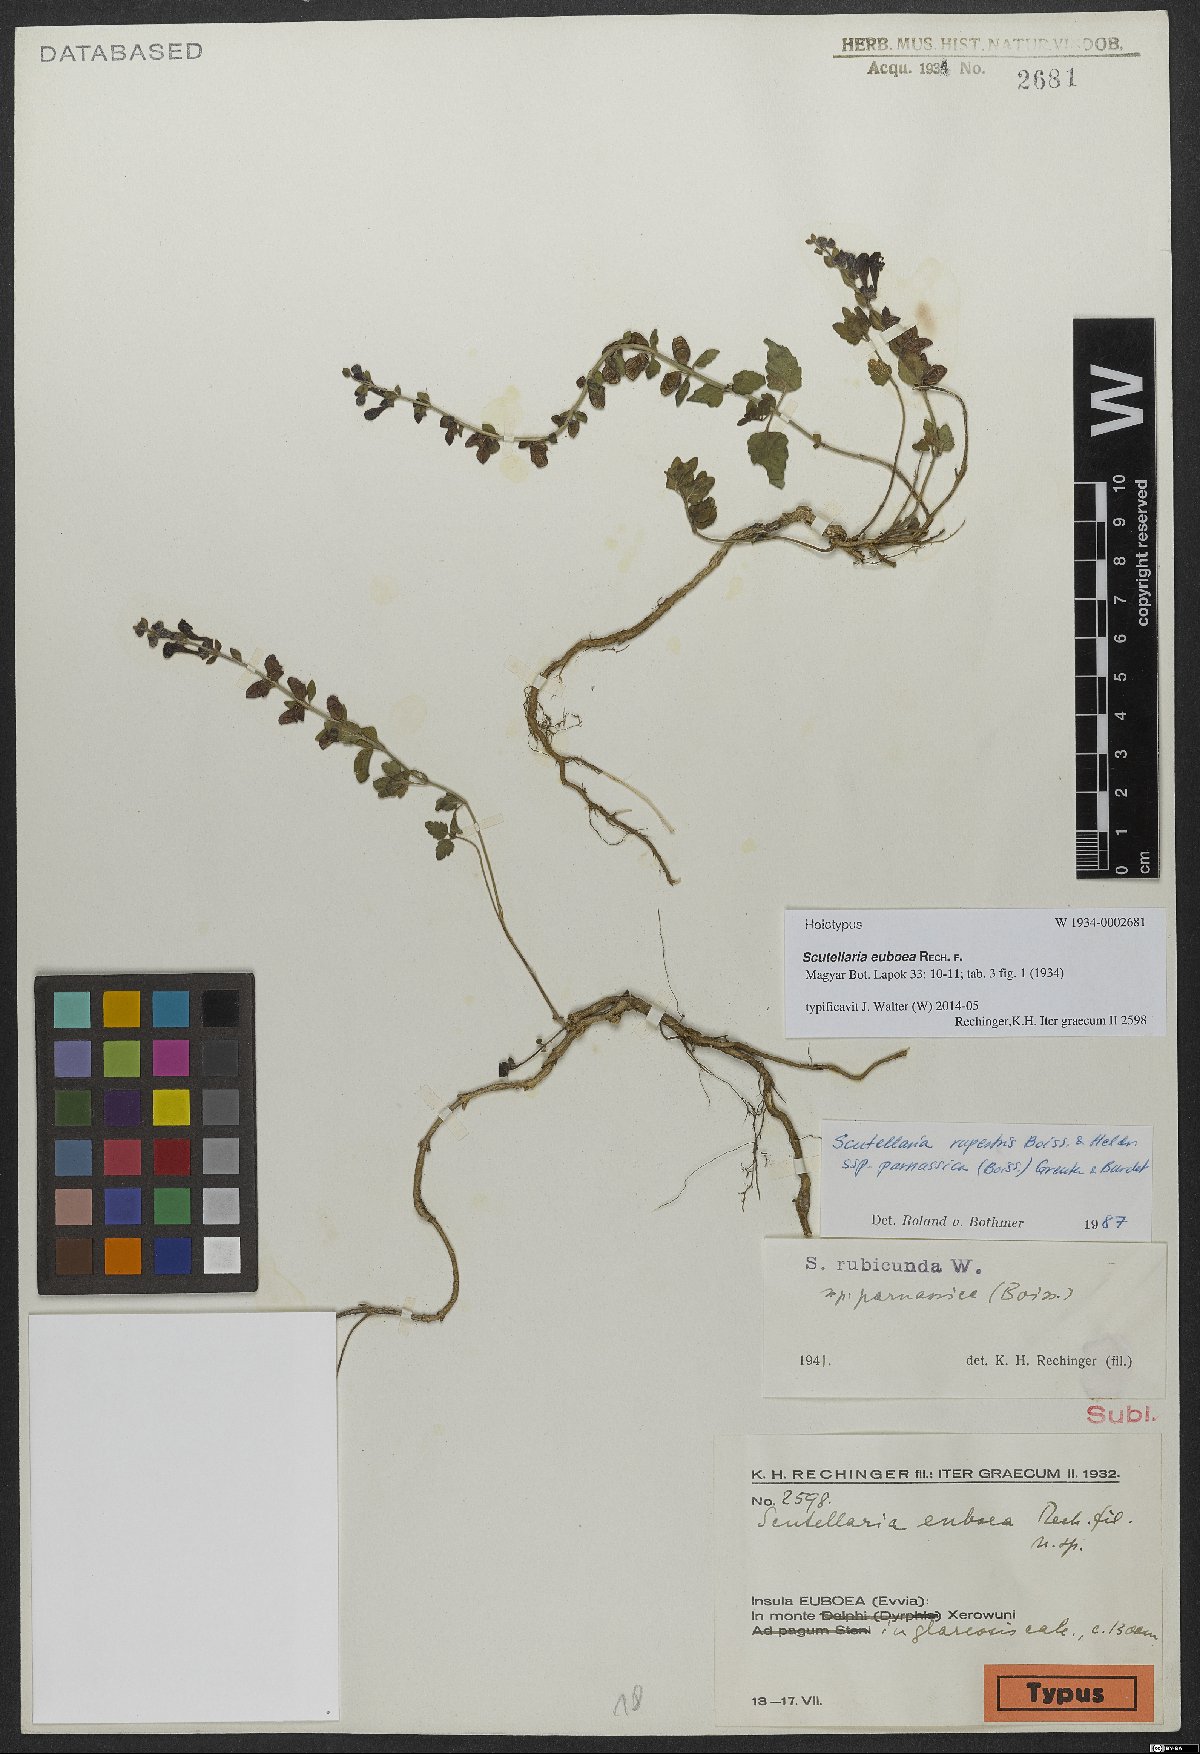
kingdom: Plantae
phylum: Tracheophyta
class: Magnoliopsida
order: Lamiales
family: Lamiaceae
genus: Scutellaria
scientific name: Scutellaria euboea
